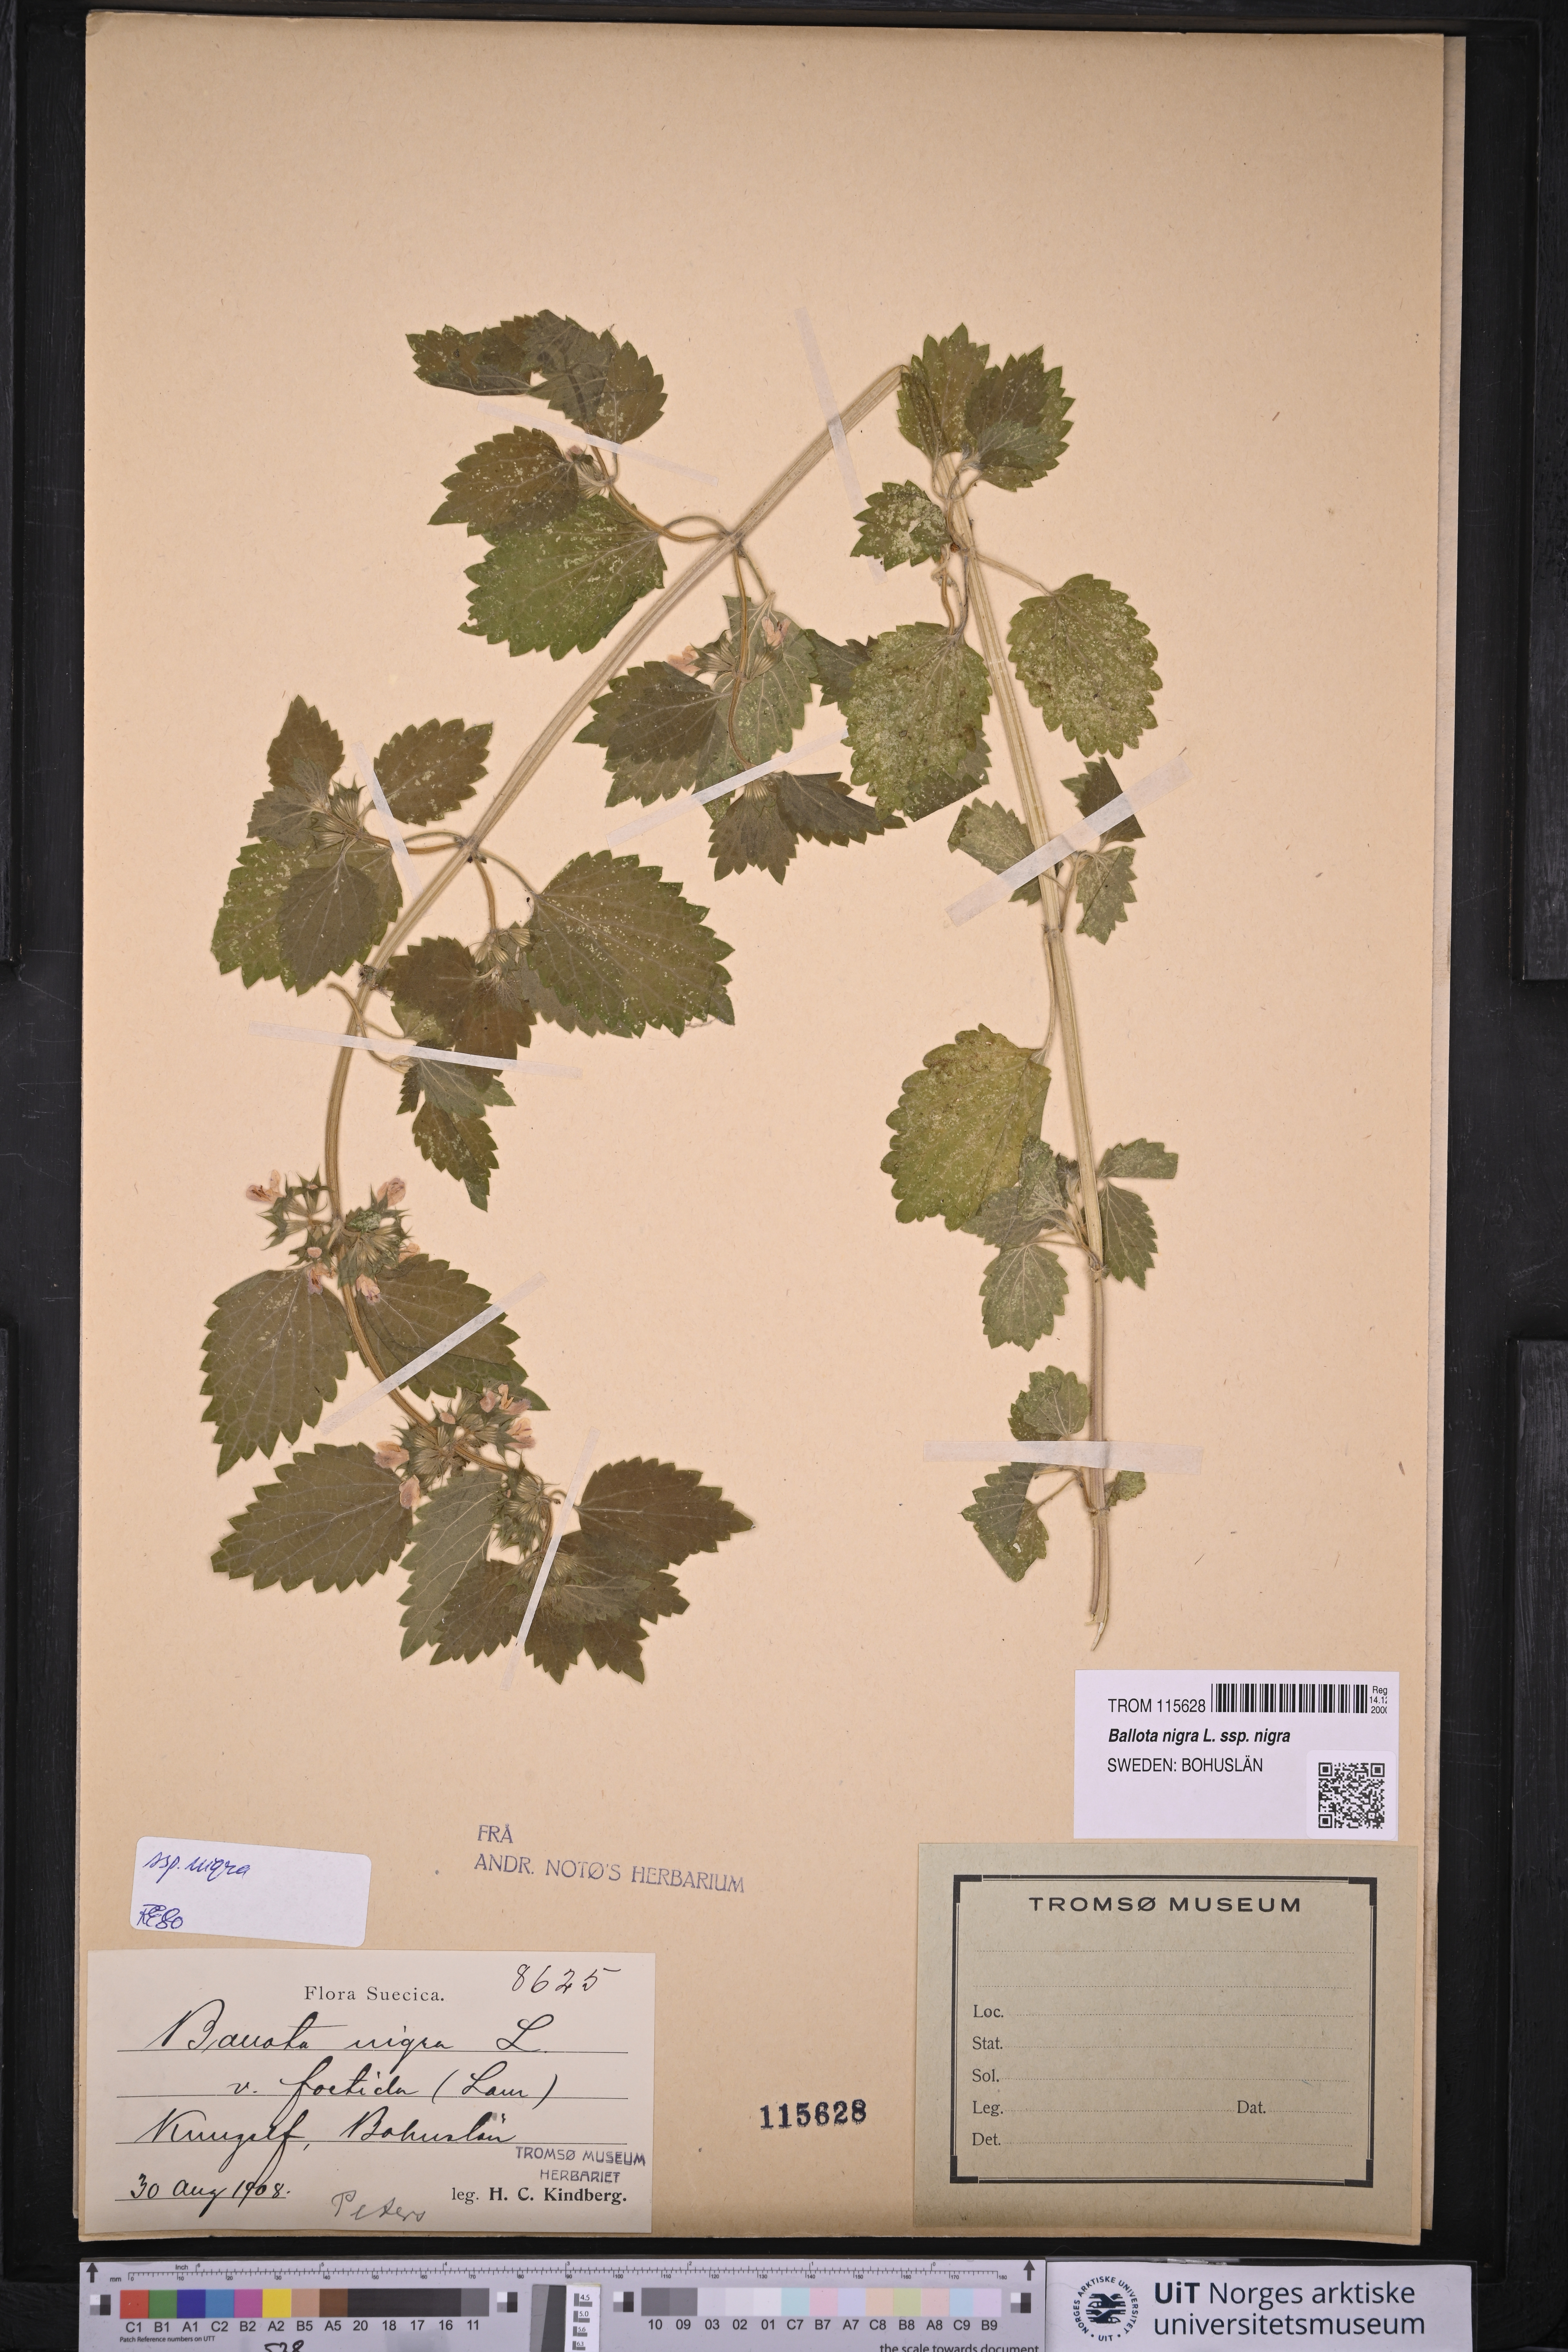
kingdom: Plantae
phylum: Tracheophyta
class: Magnoliopsida
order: Lamiales
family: Lamiaceae
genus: Ballota
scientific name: Ballota nigra
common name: Black horehound
